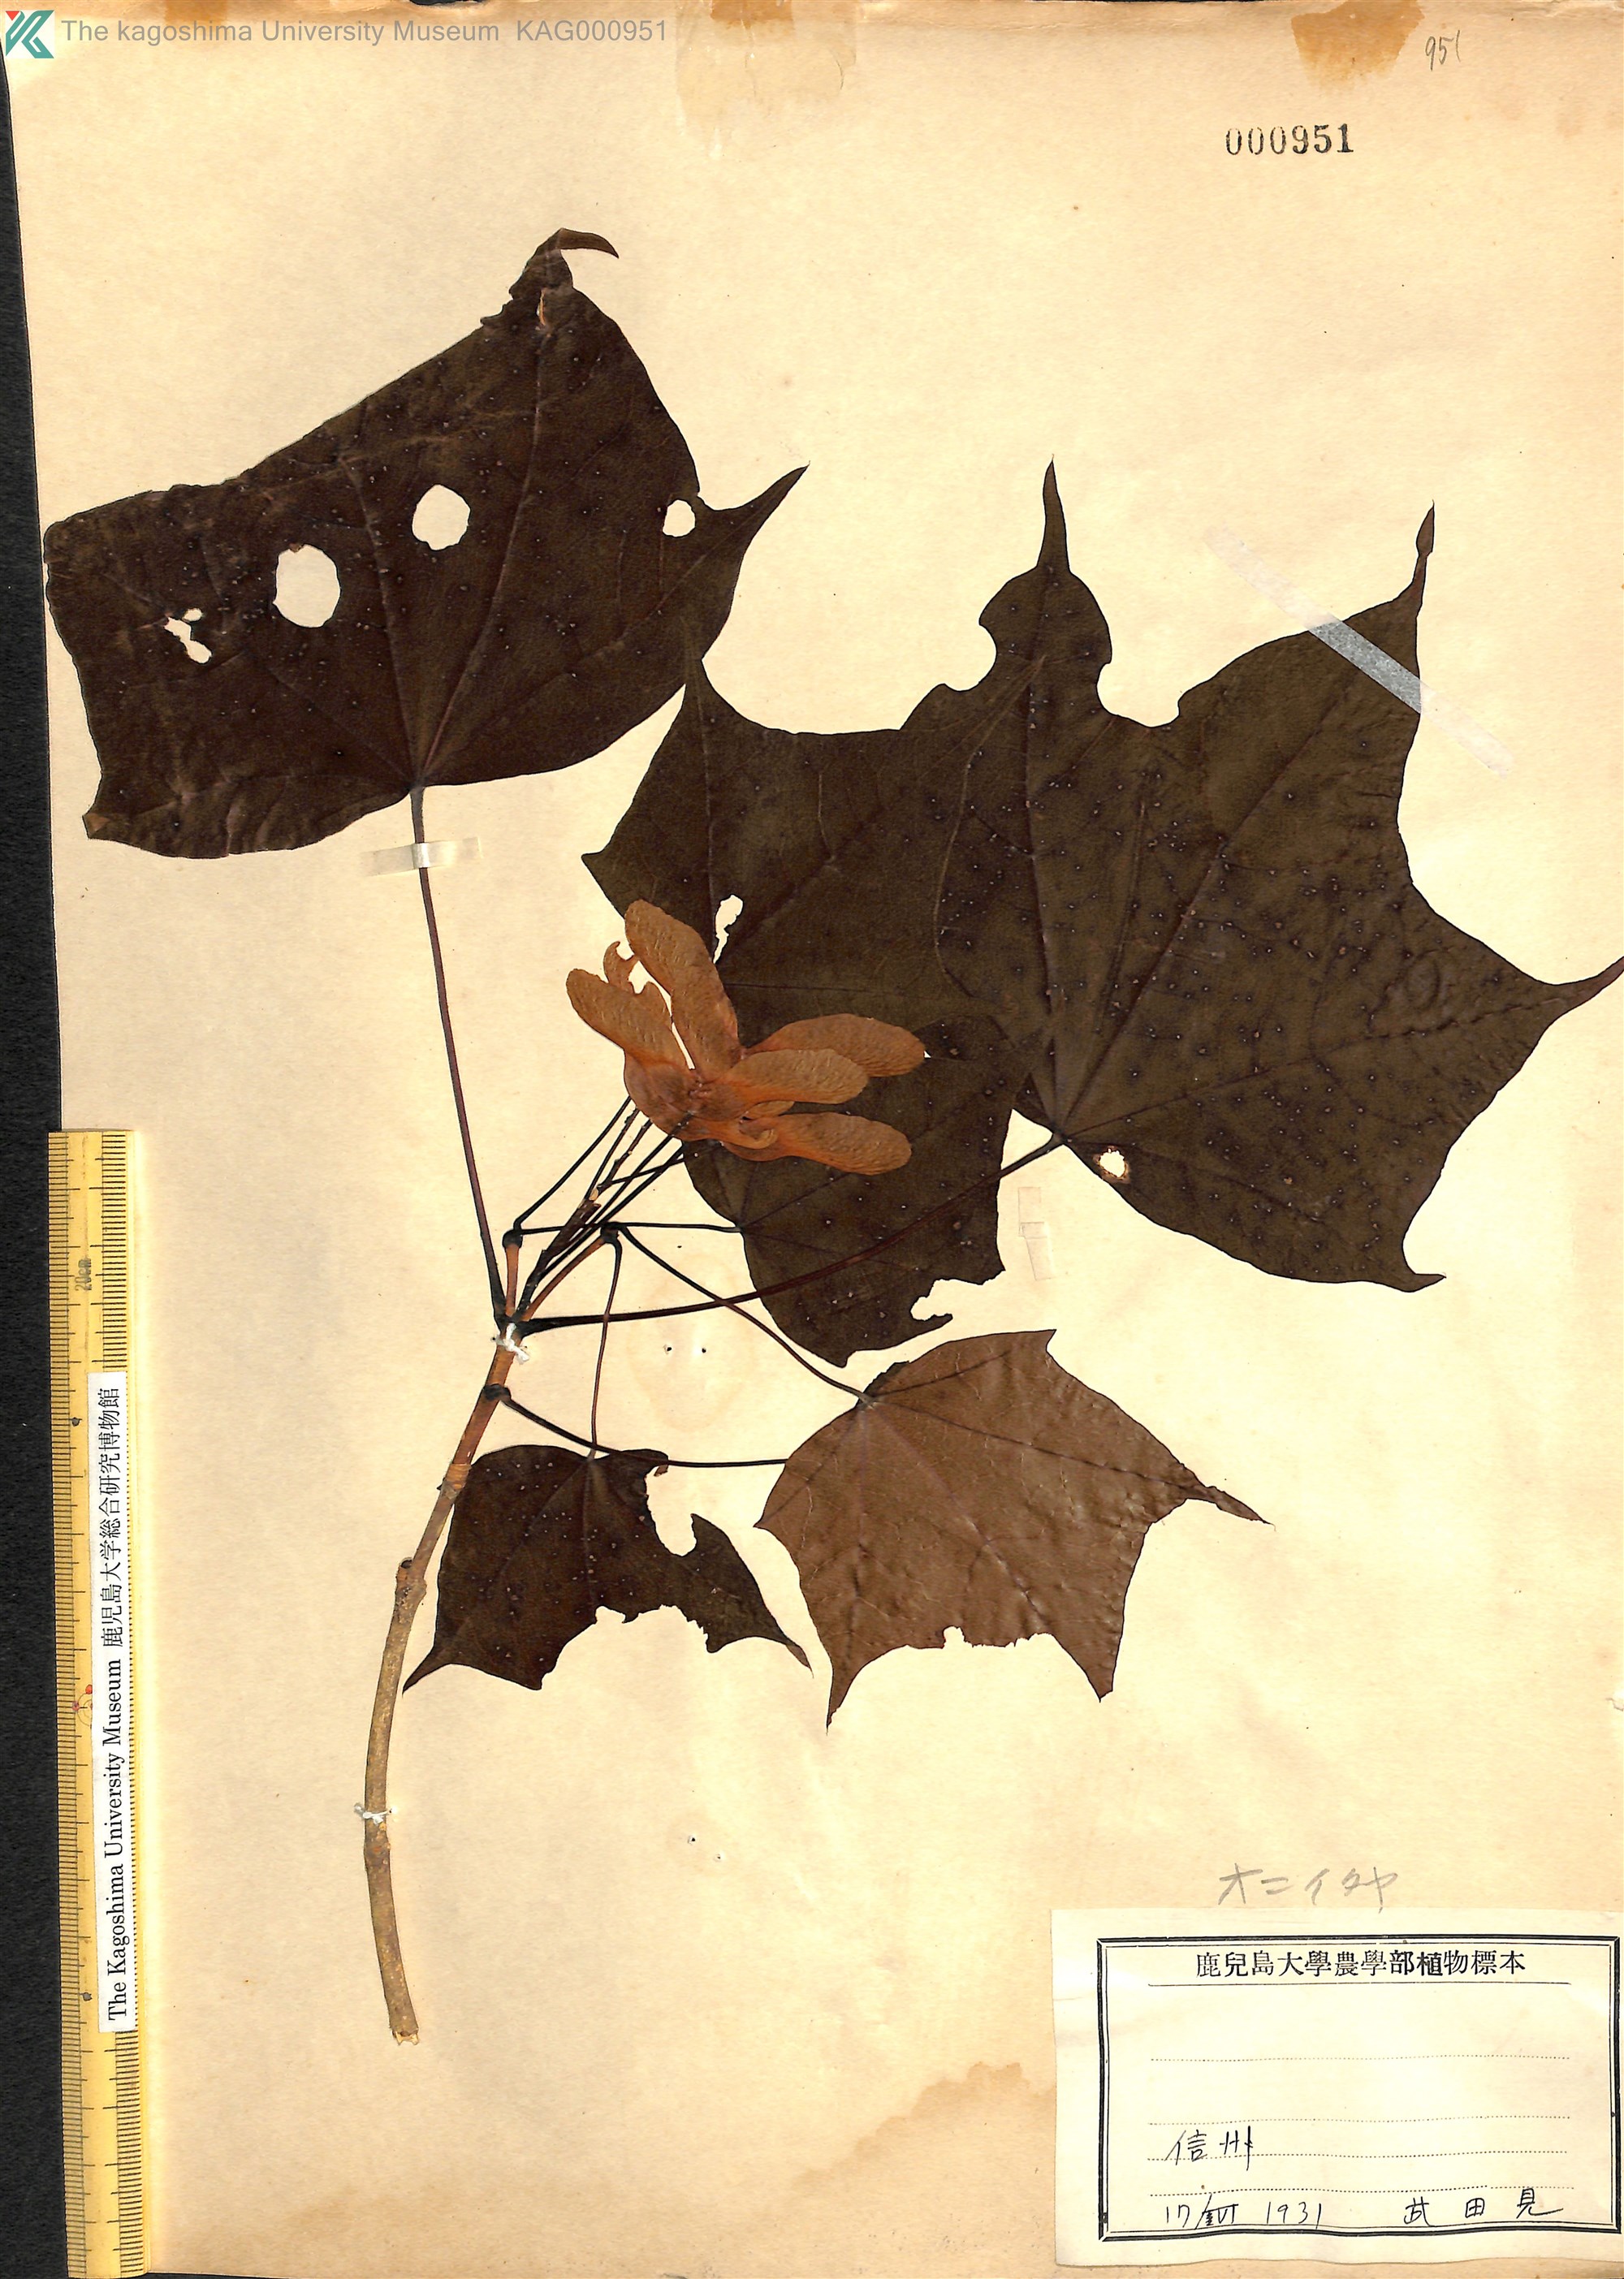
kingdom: Plantae
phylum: Tracheophyta
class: Magnoliopsida
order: Sapindales
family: Sapindaceae
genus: Acer
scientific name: Acer pictum
